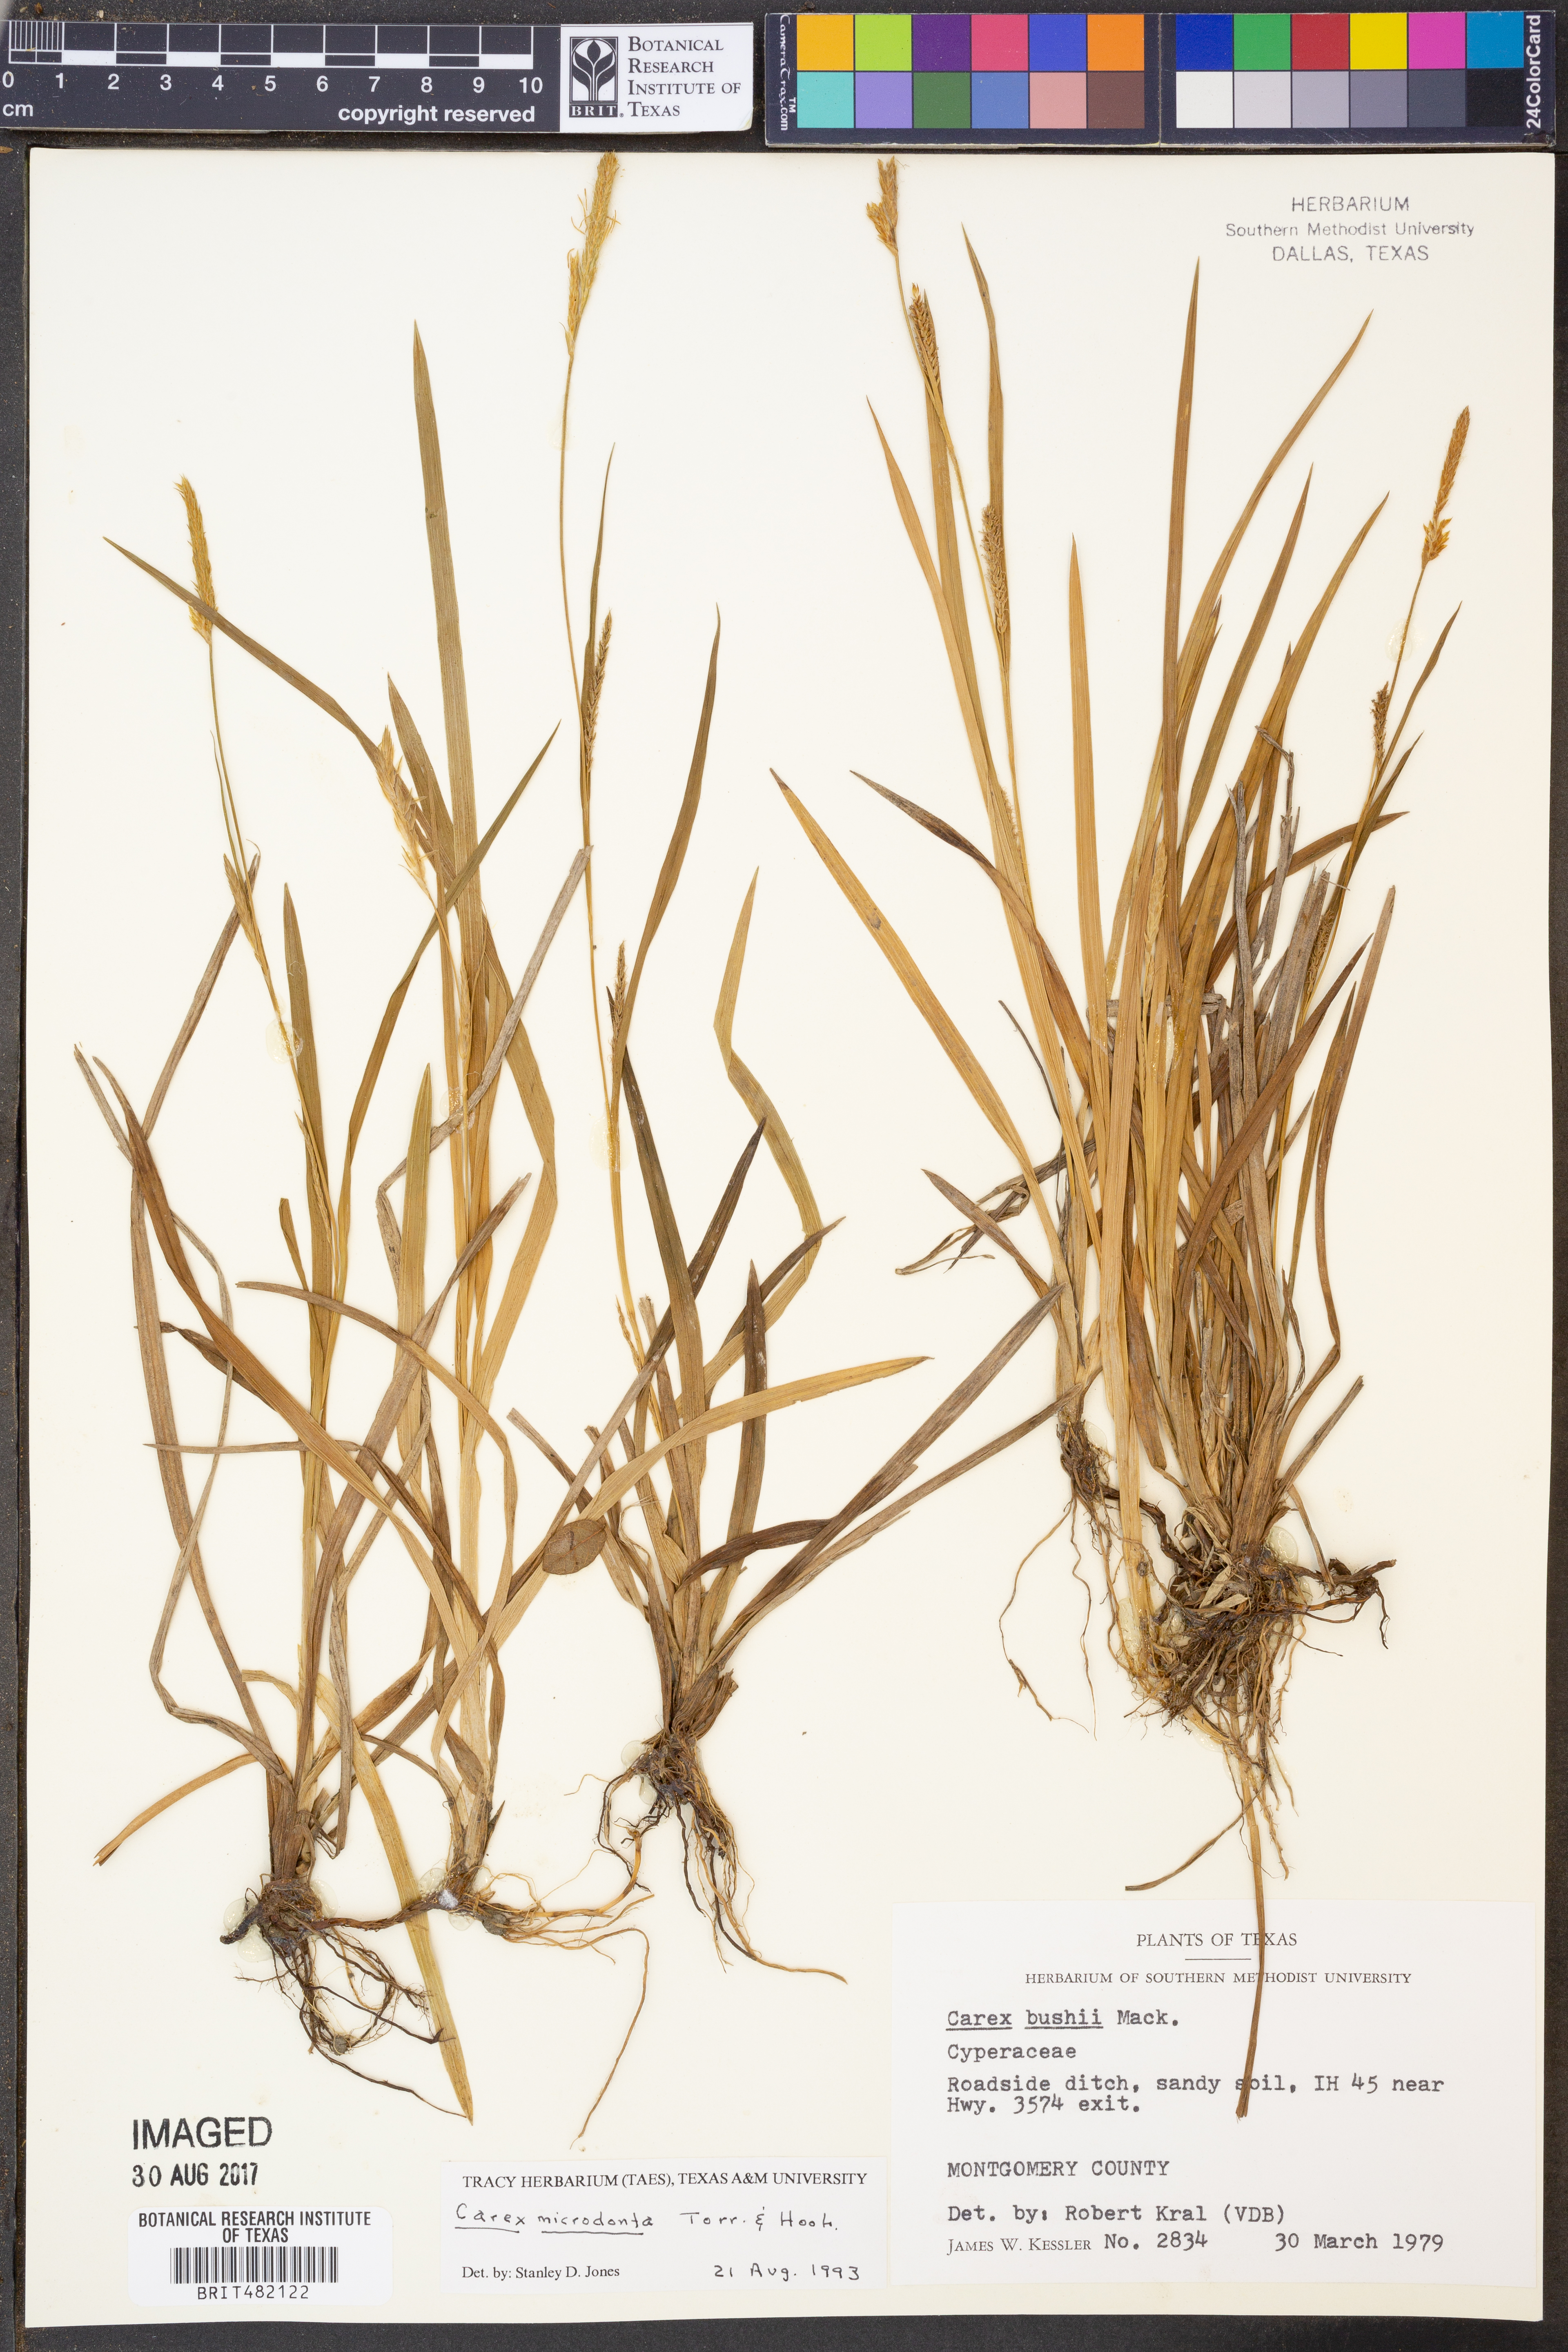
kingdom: Plantae
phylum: Tracheophyta
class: Liliopsida
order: Poales
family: Cyperaceae
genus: Carex
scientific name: Carex microdonta
